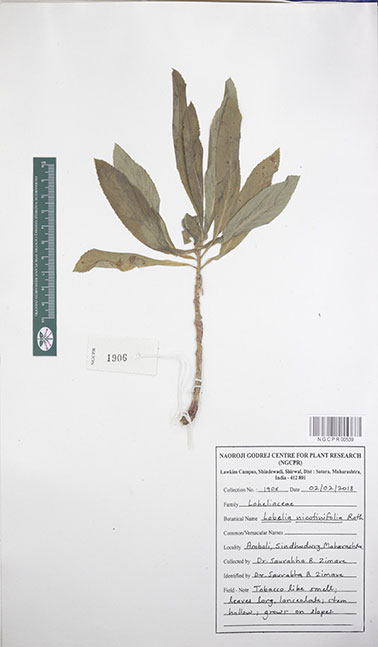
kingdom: Plantae
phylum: Tracheophyta
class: Magnoliopsida
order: Asterales
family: Campanulaceae
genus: Lobelia
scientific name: Lobelia nicotianifolia
